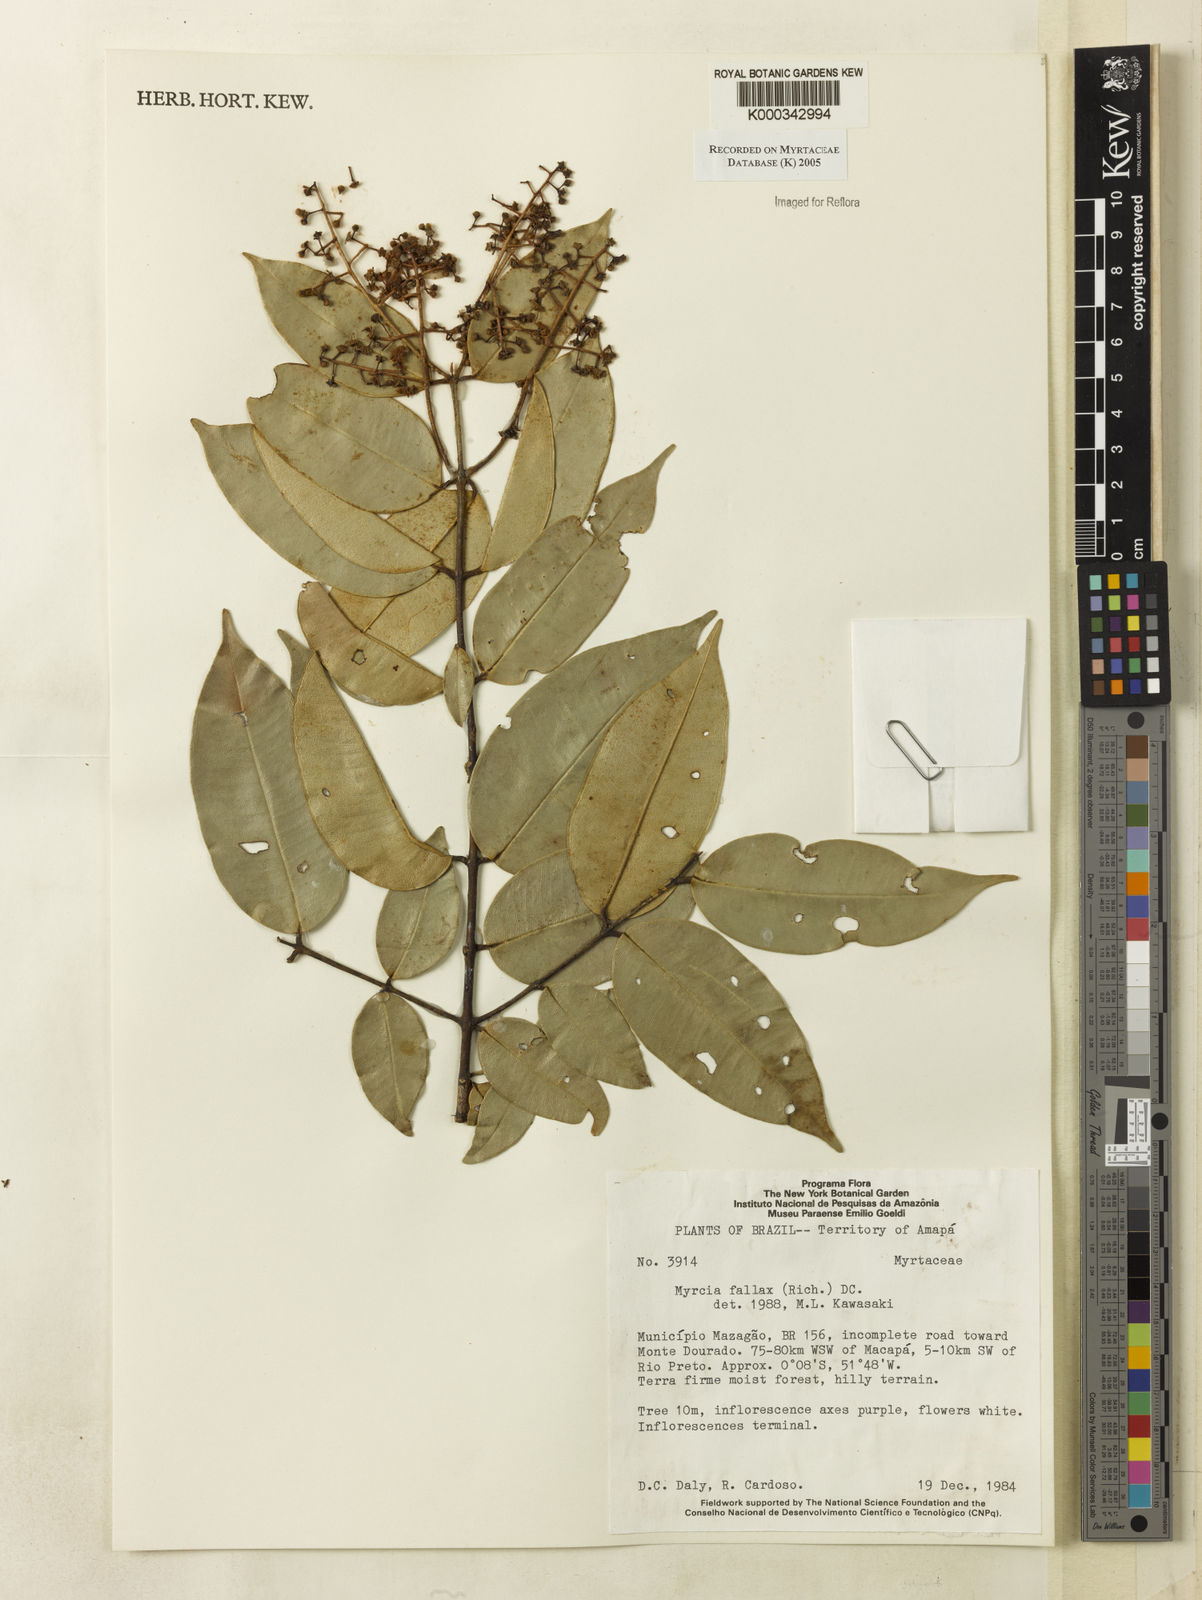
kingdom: Plantae
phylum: Tracheophyta
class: Magnoliopsida
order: Myrtales
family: Myrtaceae
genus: Myrcia
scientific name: Myrcia splendens
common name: Surinam cherry
